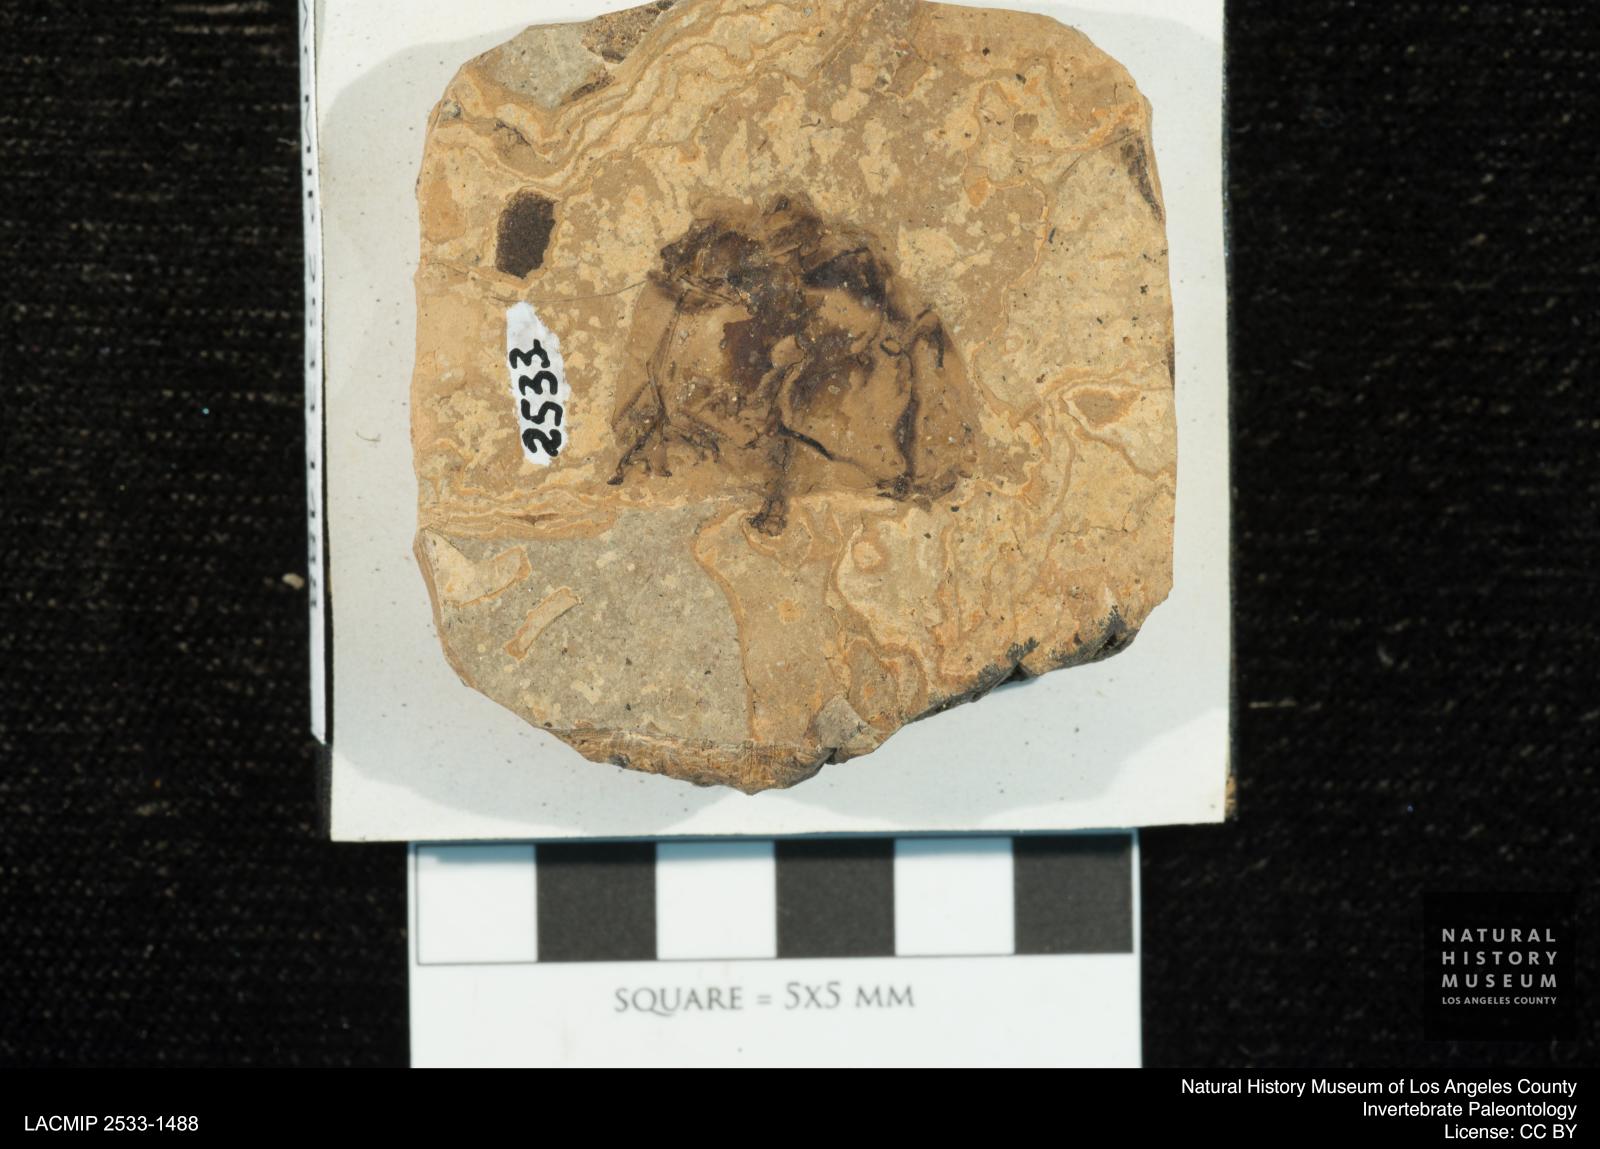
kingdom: Animalia
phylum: Arthropoda
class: Insecta
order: Odonata
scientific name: Odonata
